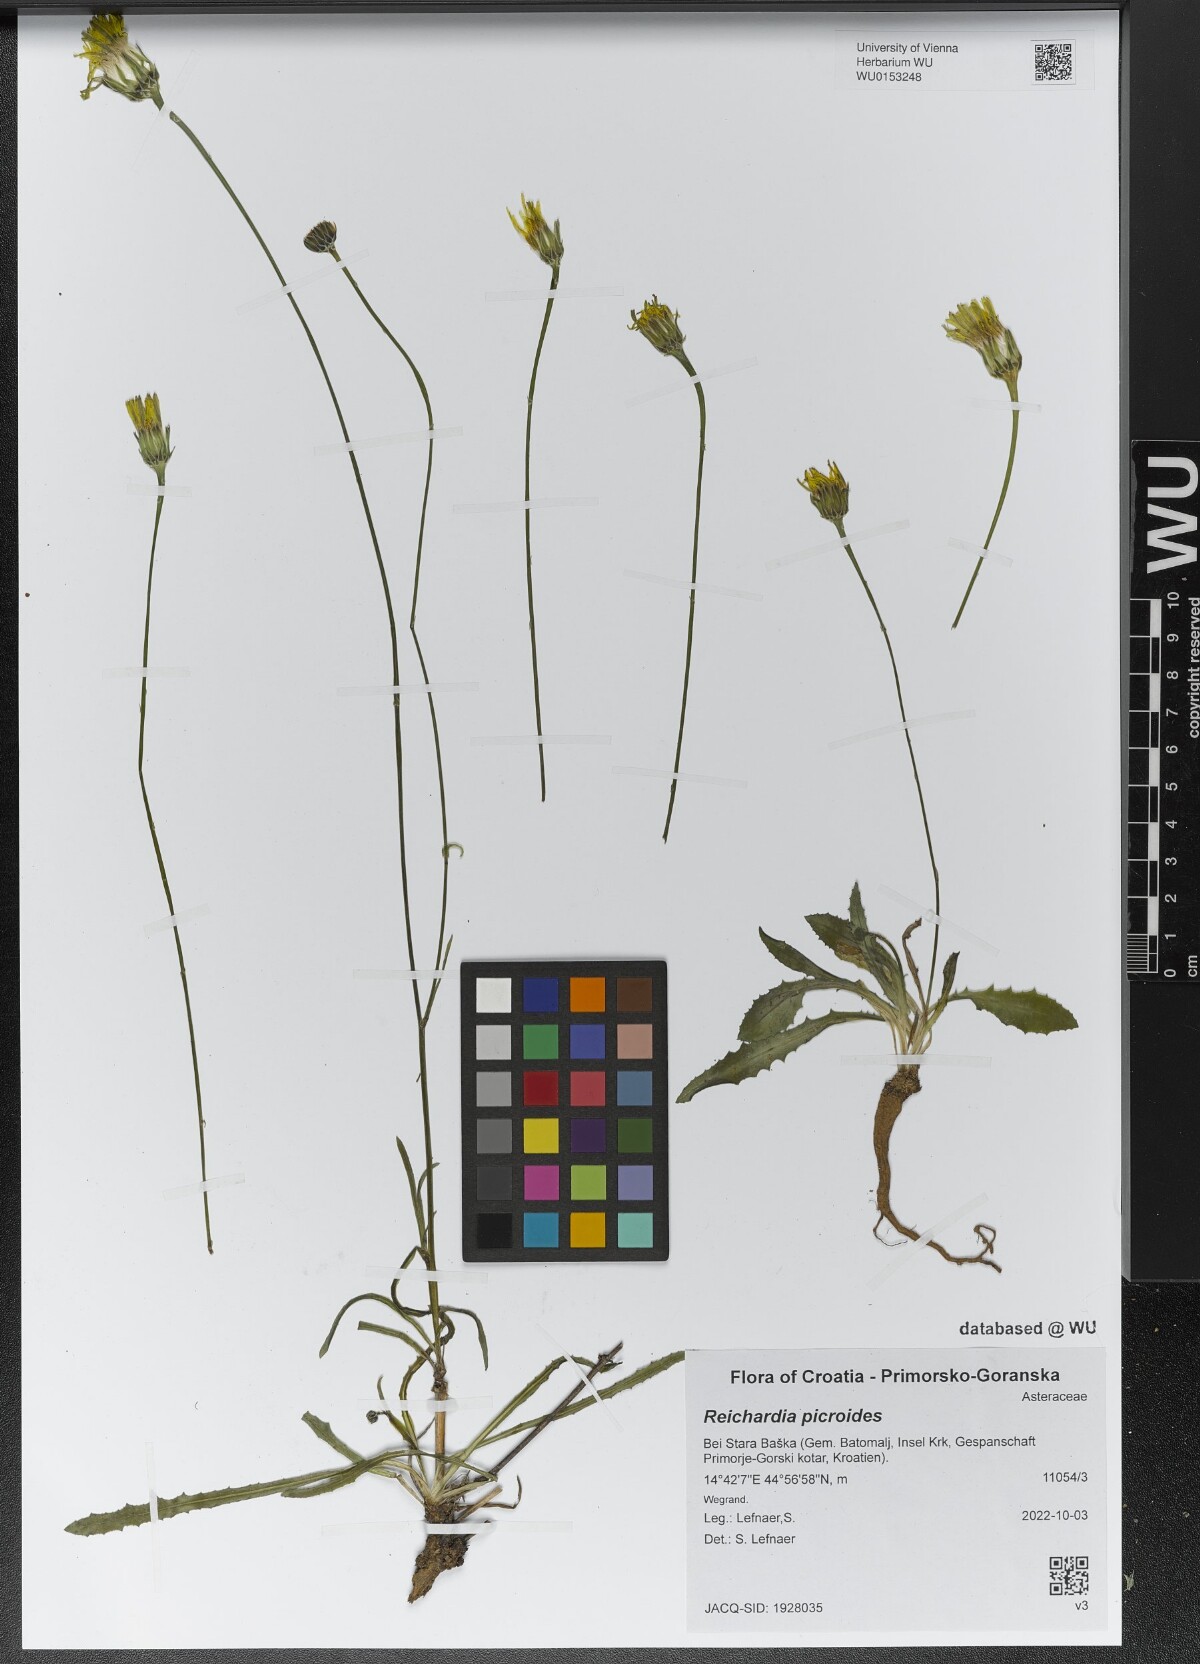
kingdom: Plantae
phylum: Tracheophyta
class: Magnoliopsida
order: Asterales
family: Asteraceae
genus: Reichardia
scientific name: Reichardia picroides
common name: Common brighteyes
